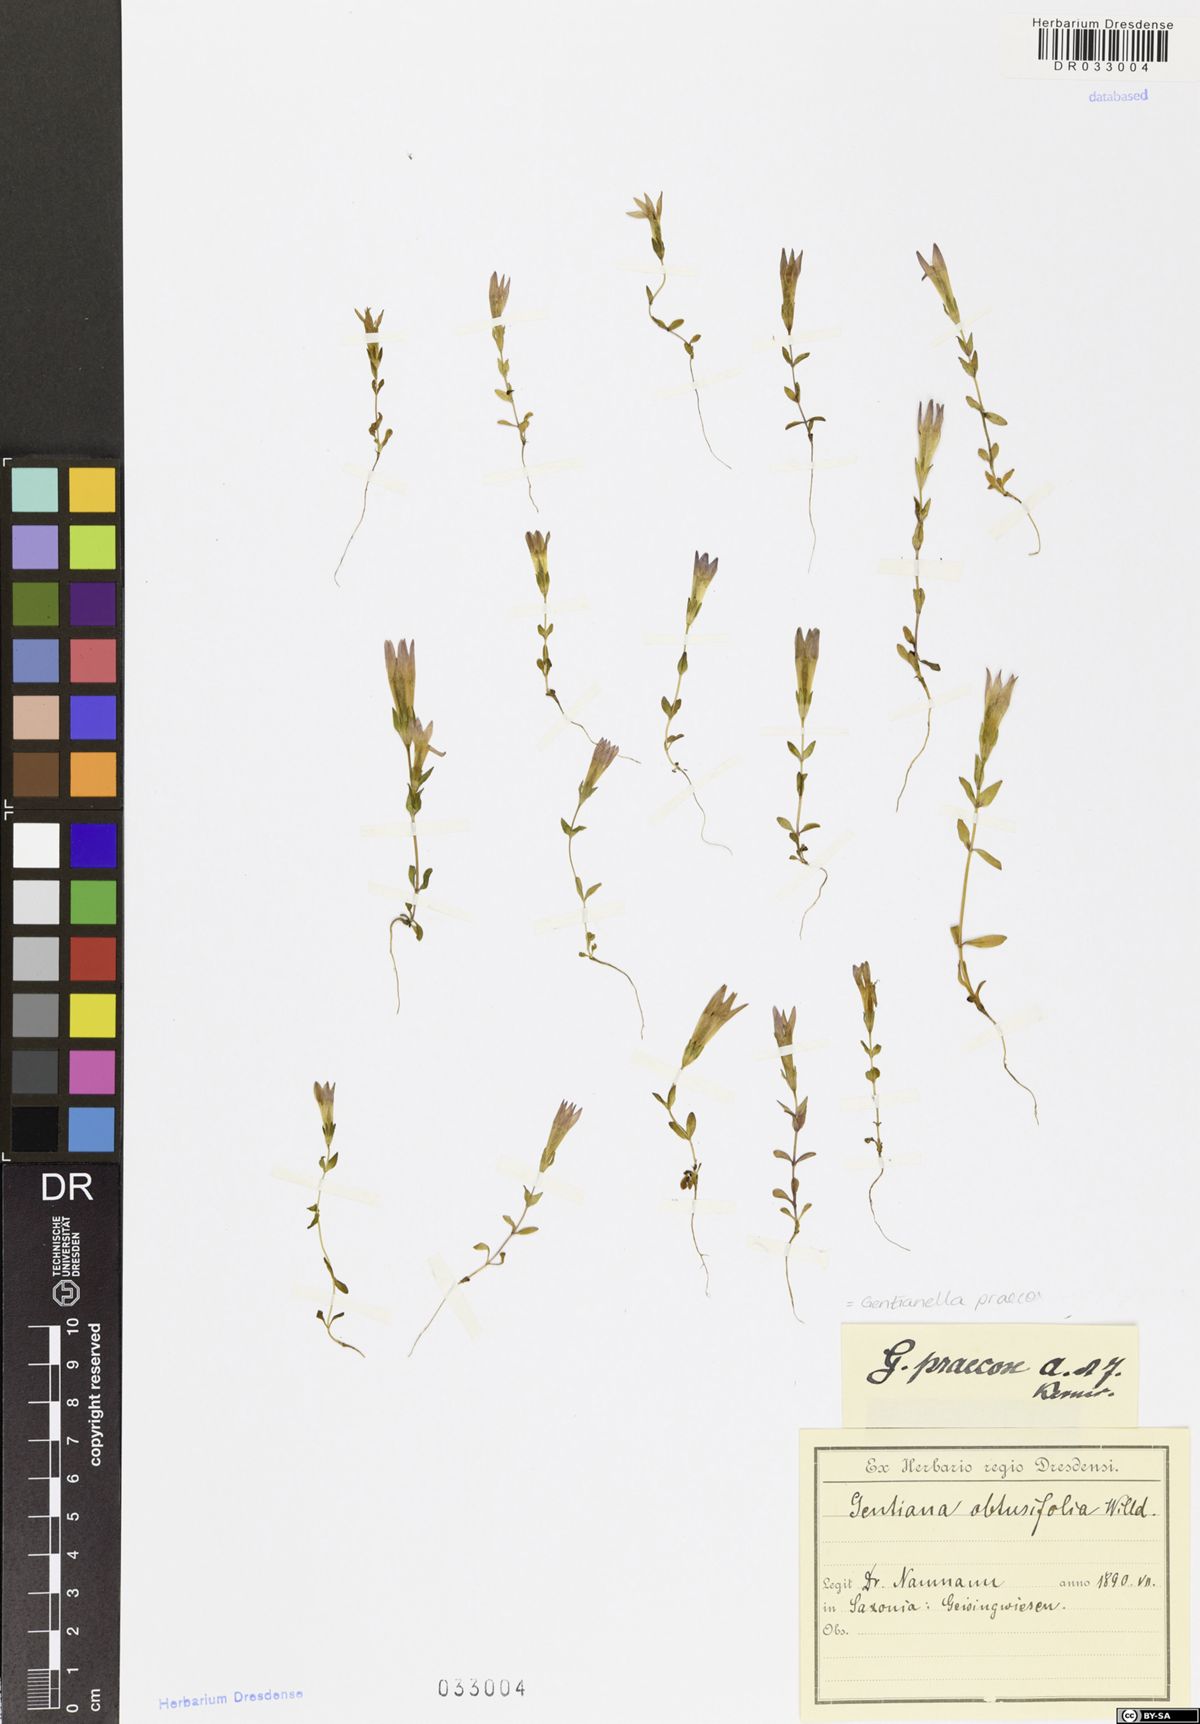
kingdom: Plantae
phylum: Tracheophyta
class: Magnoliopsida
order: Gentianales
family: Gentianaceae
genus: Gentianella
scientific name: Gentianella praecox
